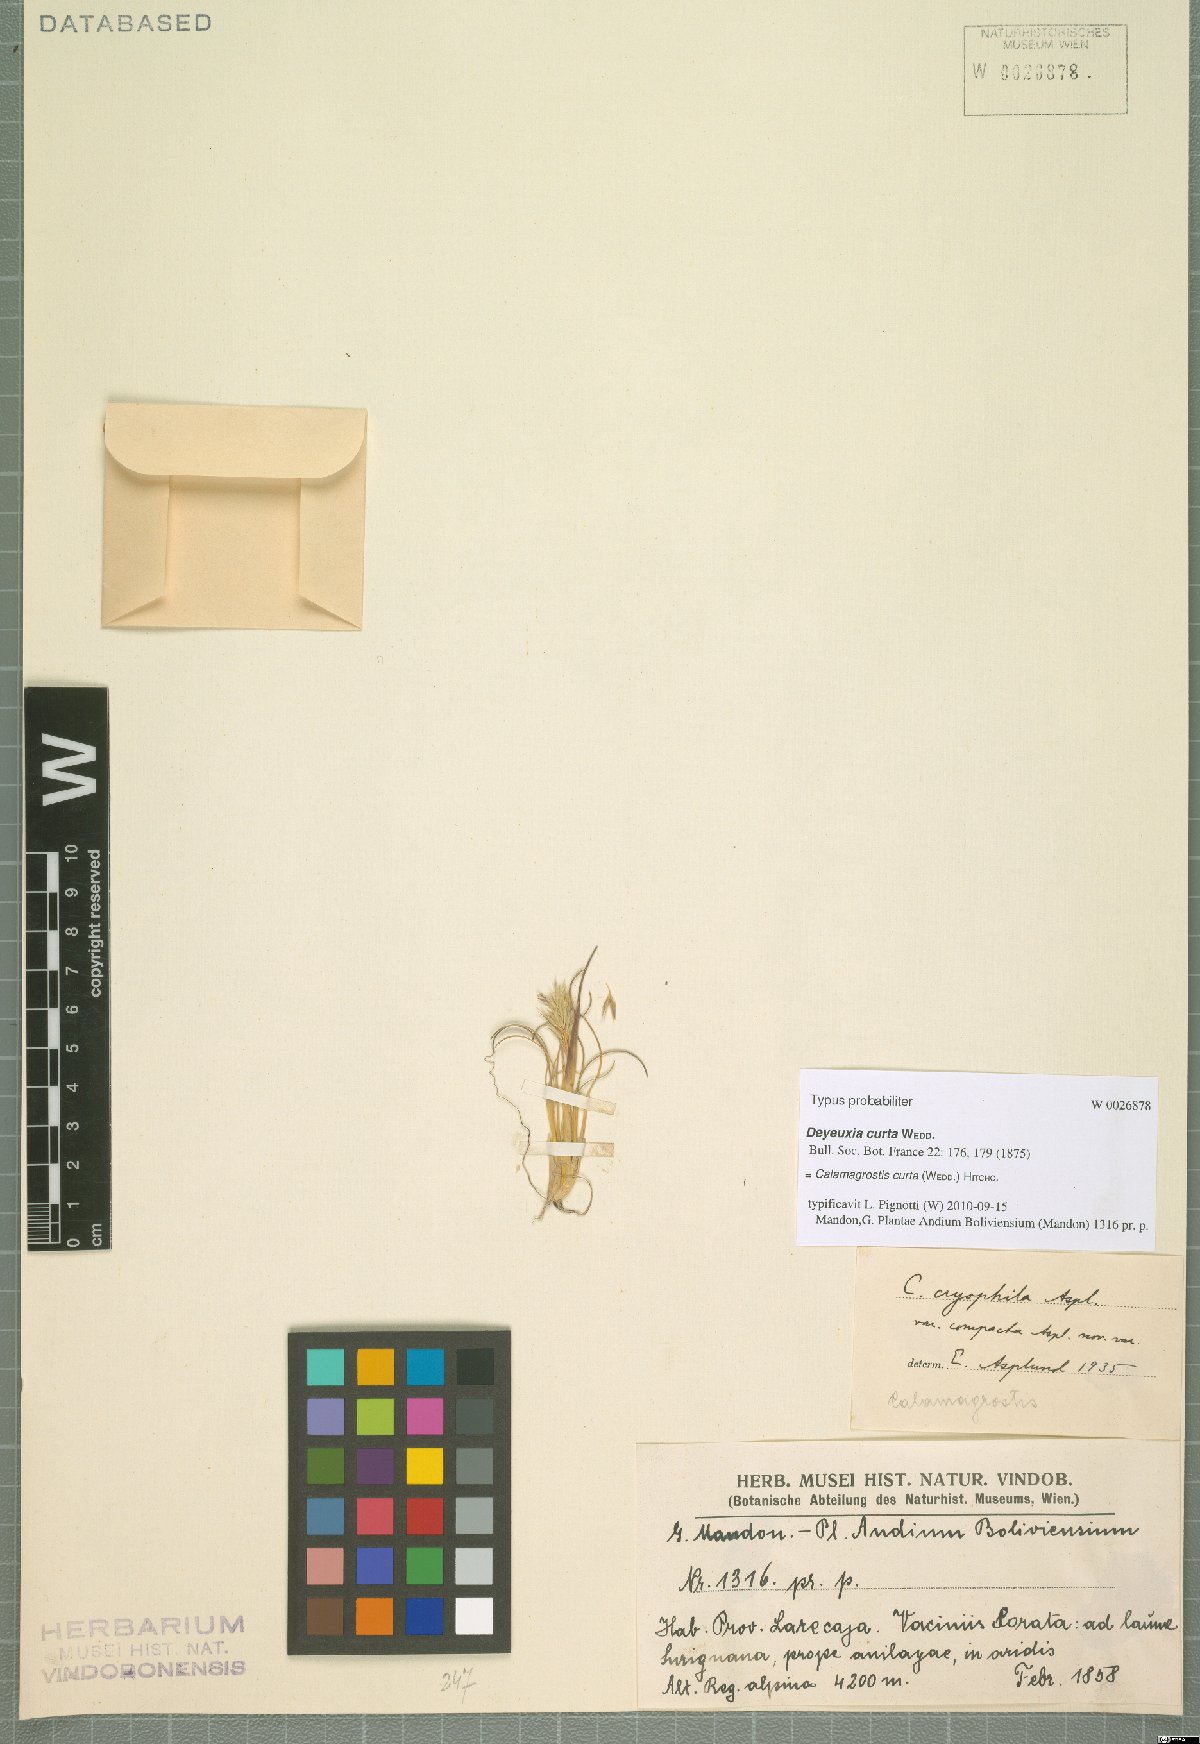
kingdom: Plantae
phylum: Tracheophyta
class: Liliopsida
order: Poales
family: Poaceae
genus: Cinnagrostis
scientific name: Cinnagrostis curta
